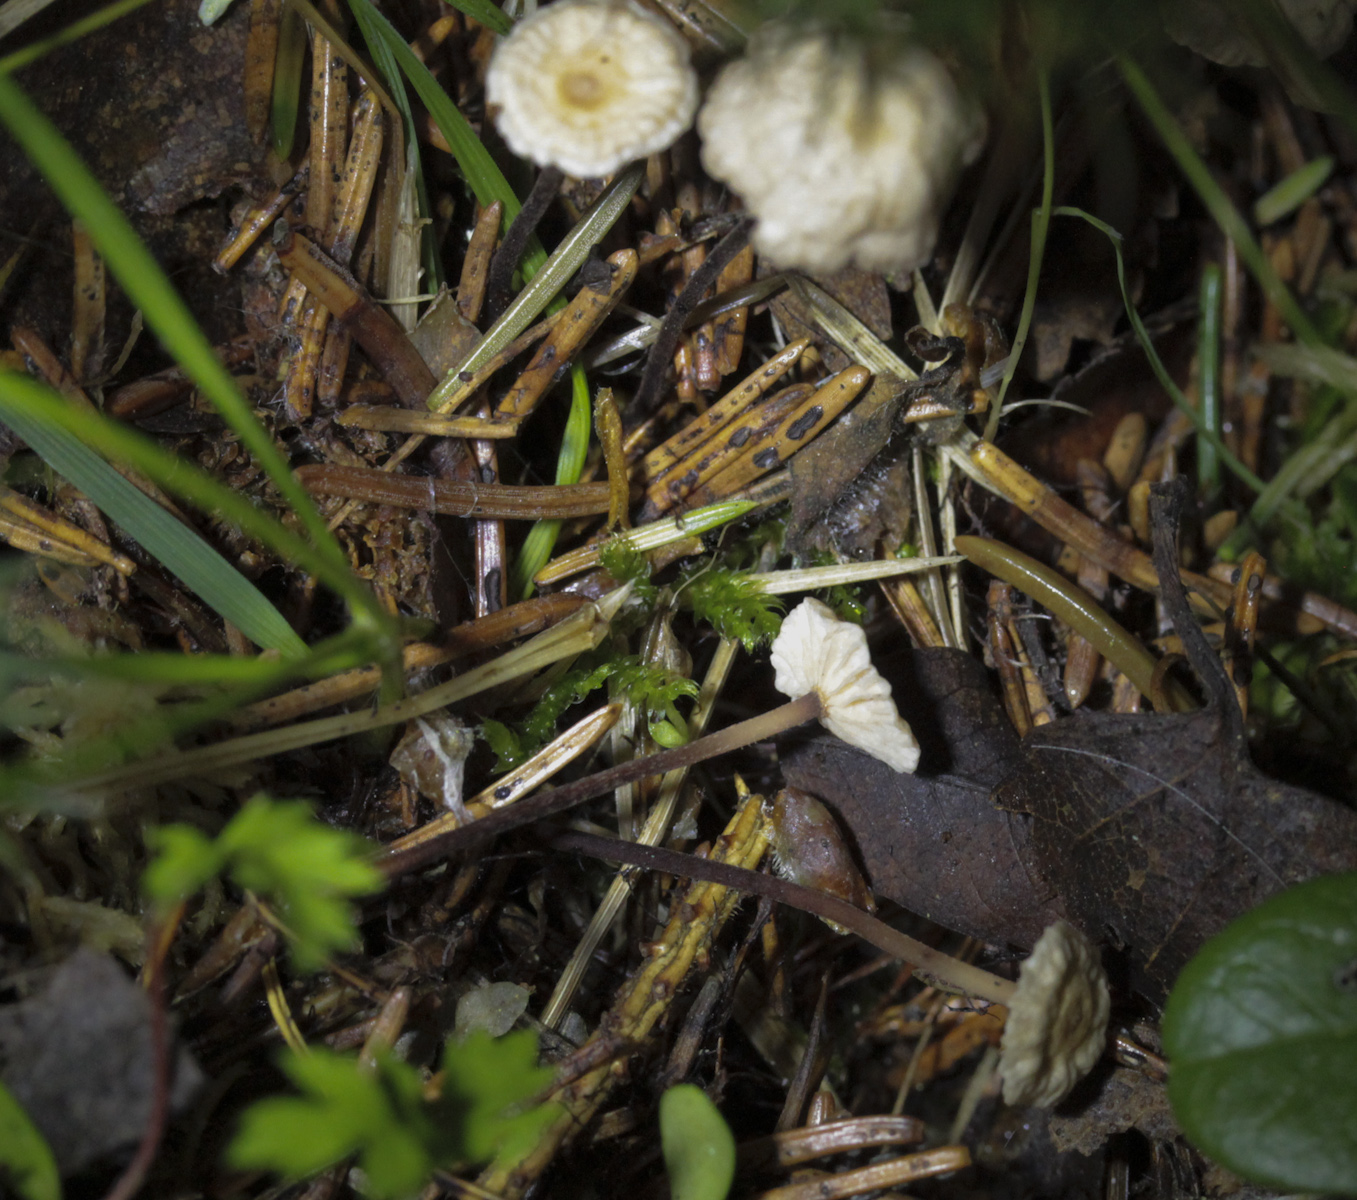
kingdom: Fungi
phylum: Basidiomycota
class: Agaricomycetes
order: Agaricales
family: Omphalotaceae
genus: Paragymnopus
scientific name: Paragymnopus perforans
